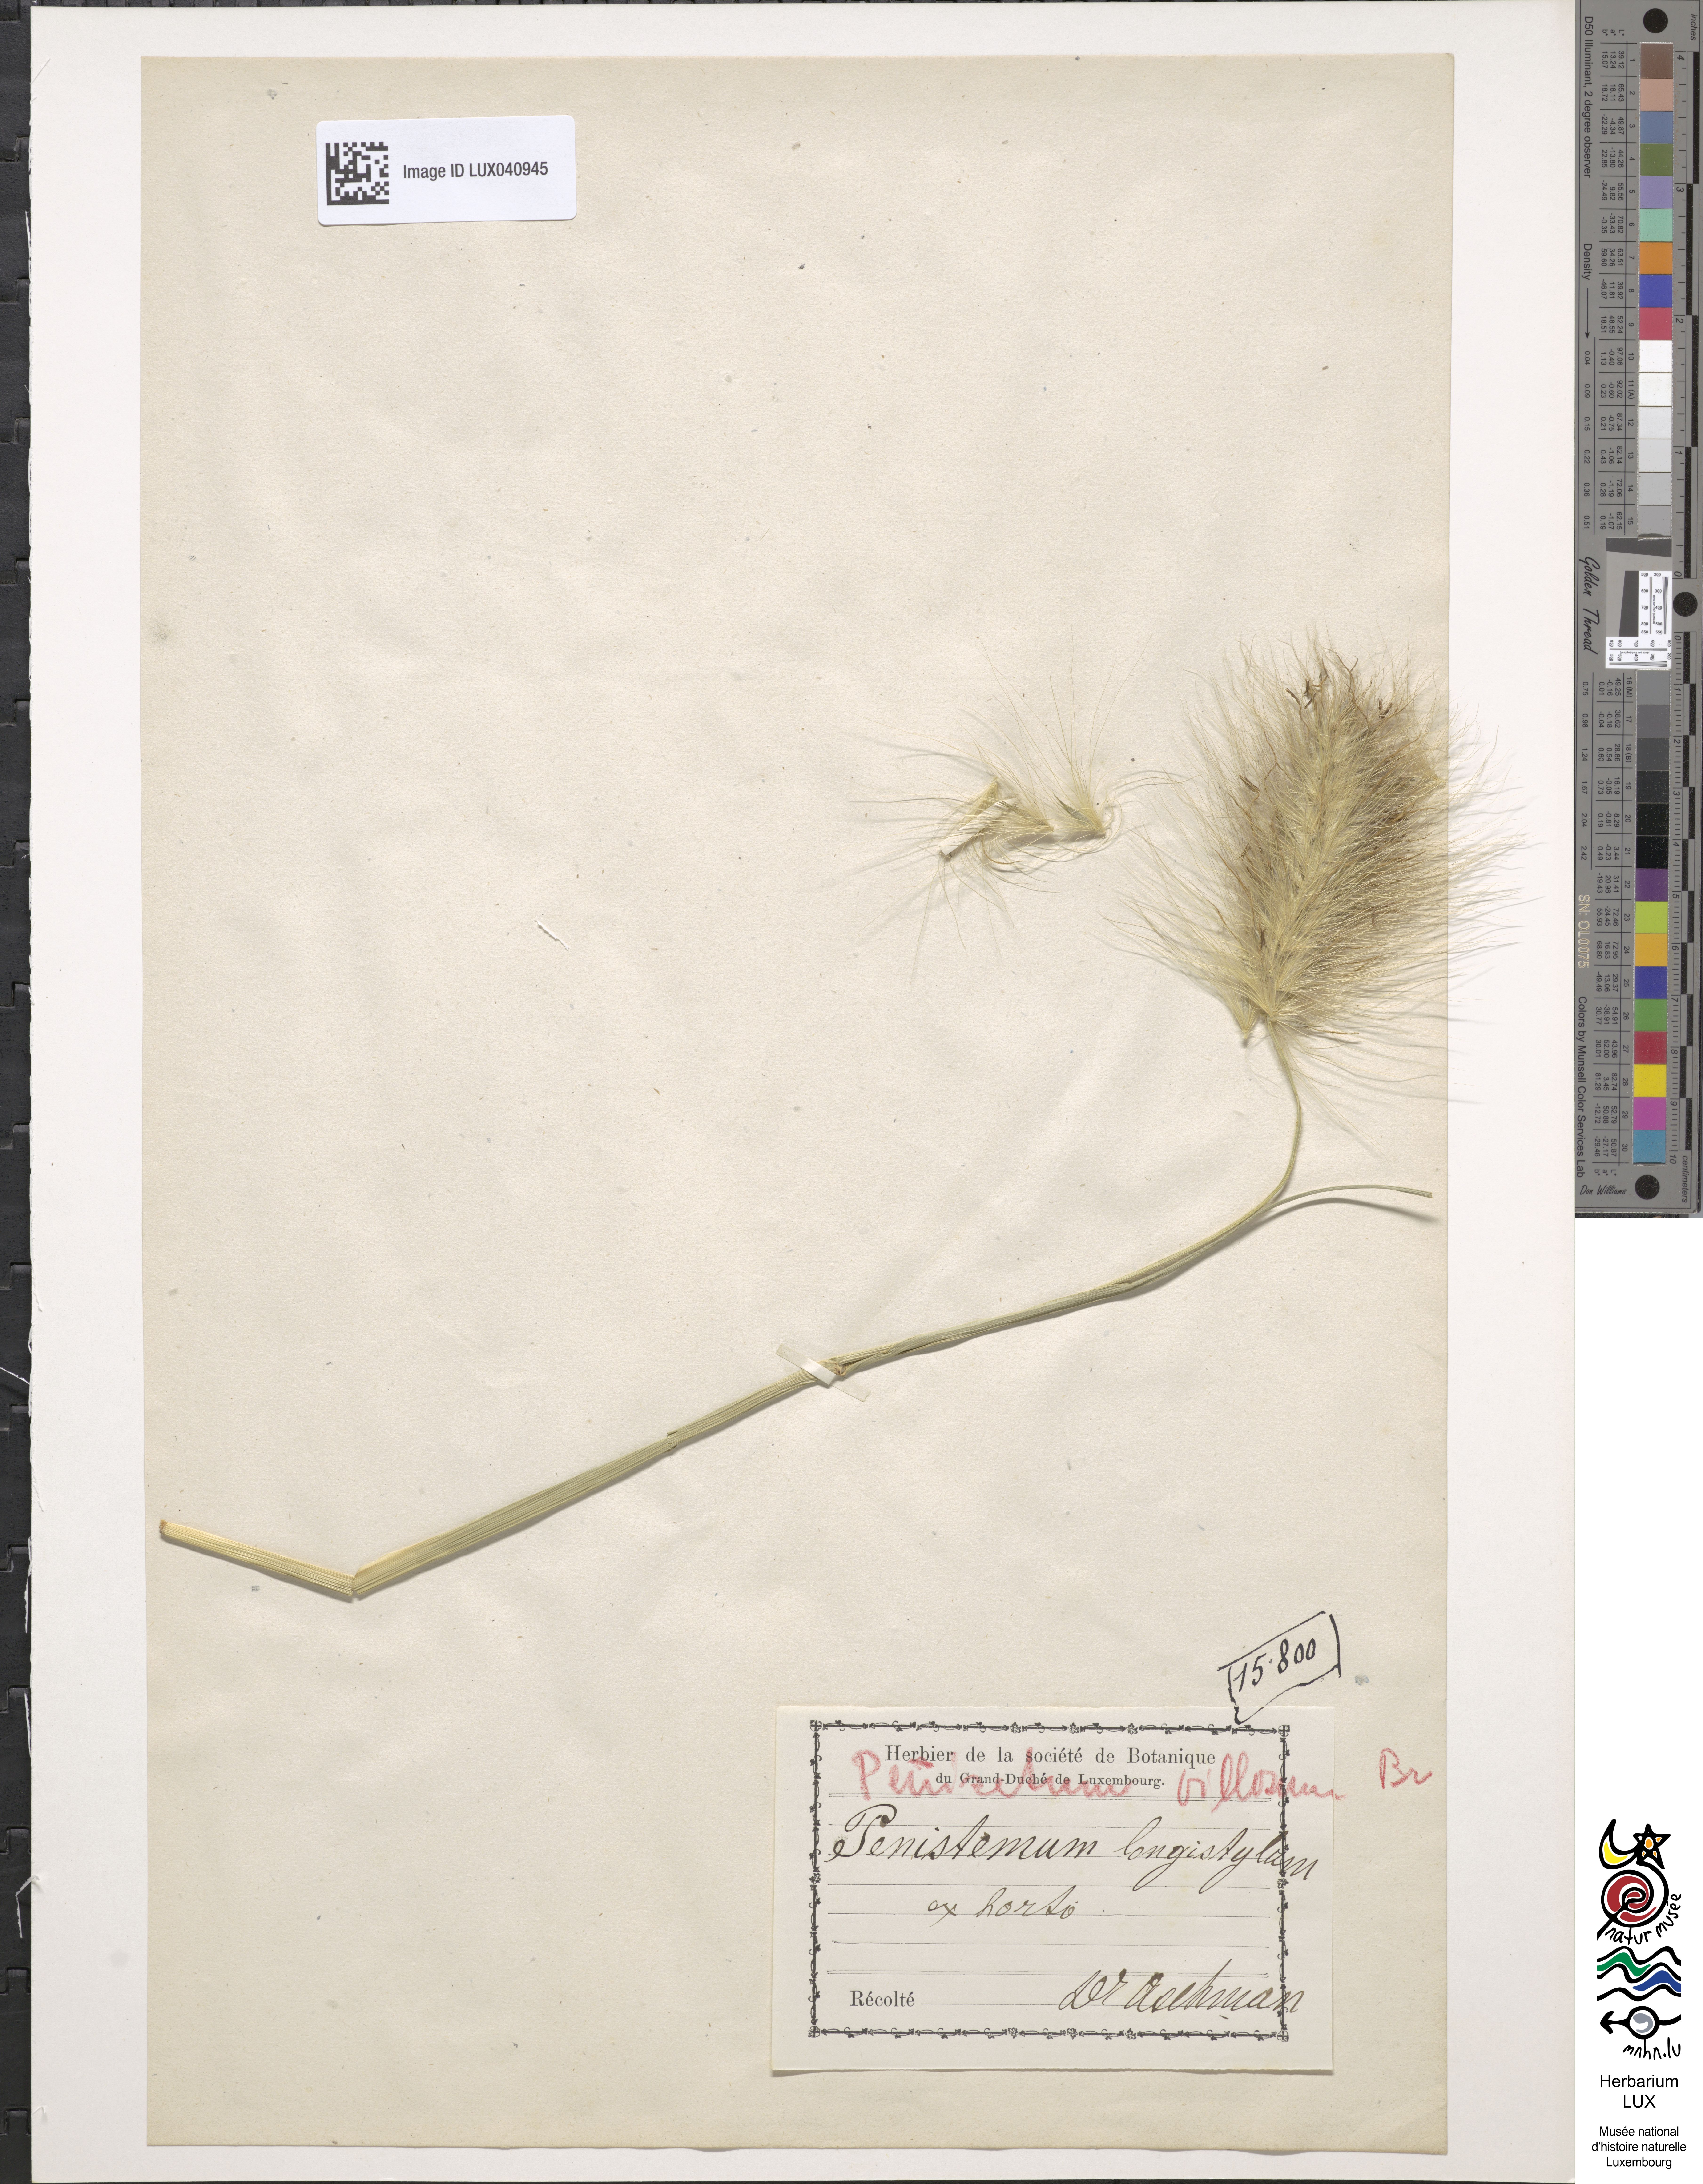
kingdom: Plantae
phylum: Tracheophyta
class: Liliopsida
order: Poales
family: Poaceae
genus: Cenchrus
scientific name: Cenchrus longisetus
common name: Feathertop
